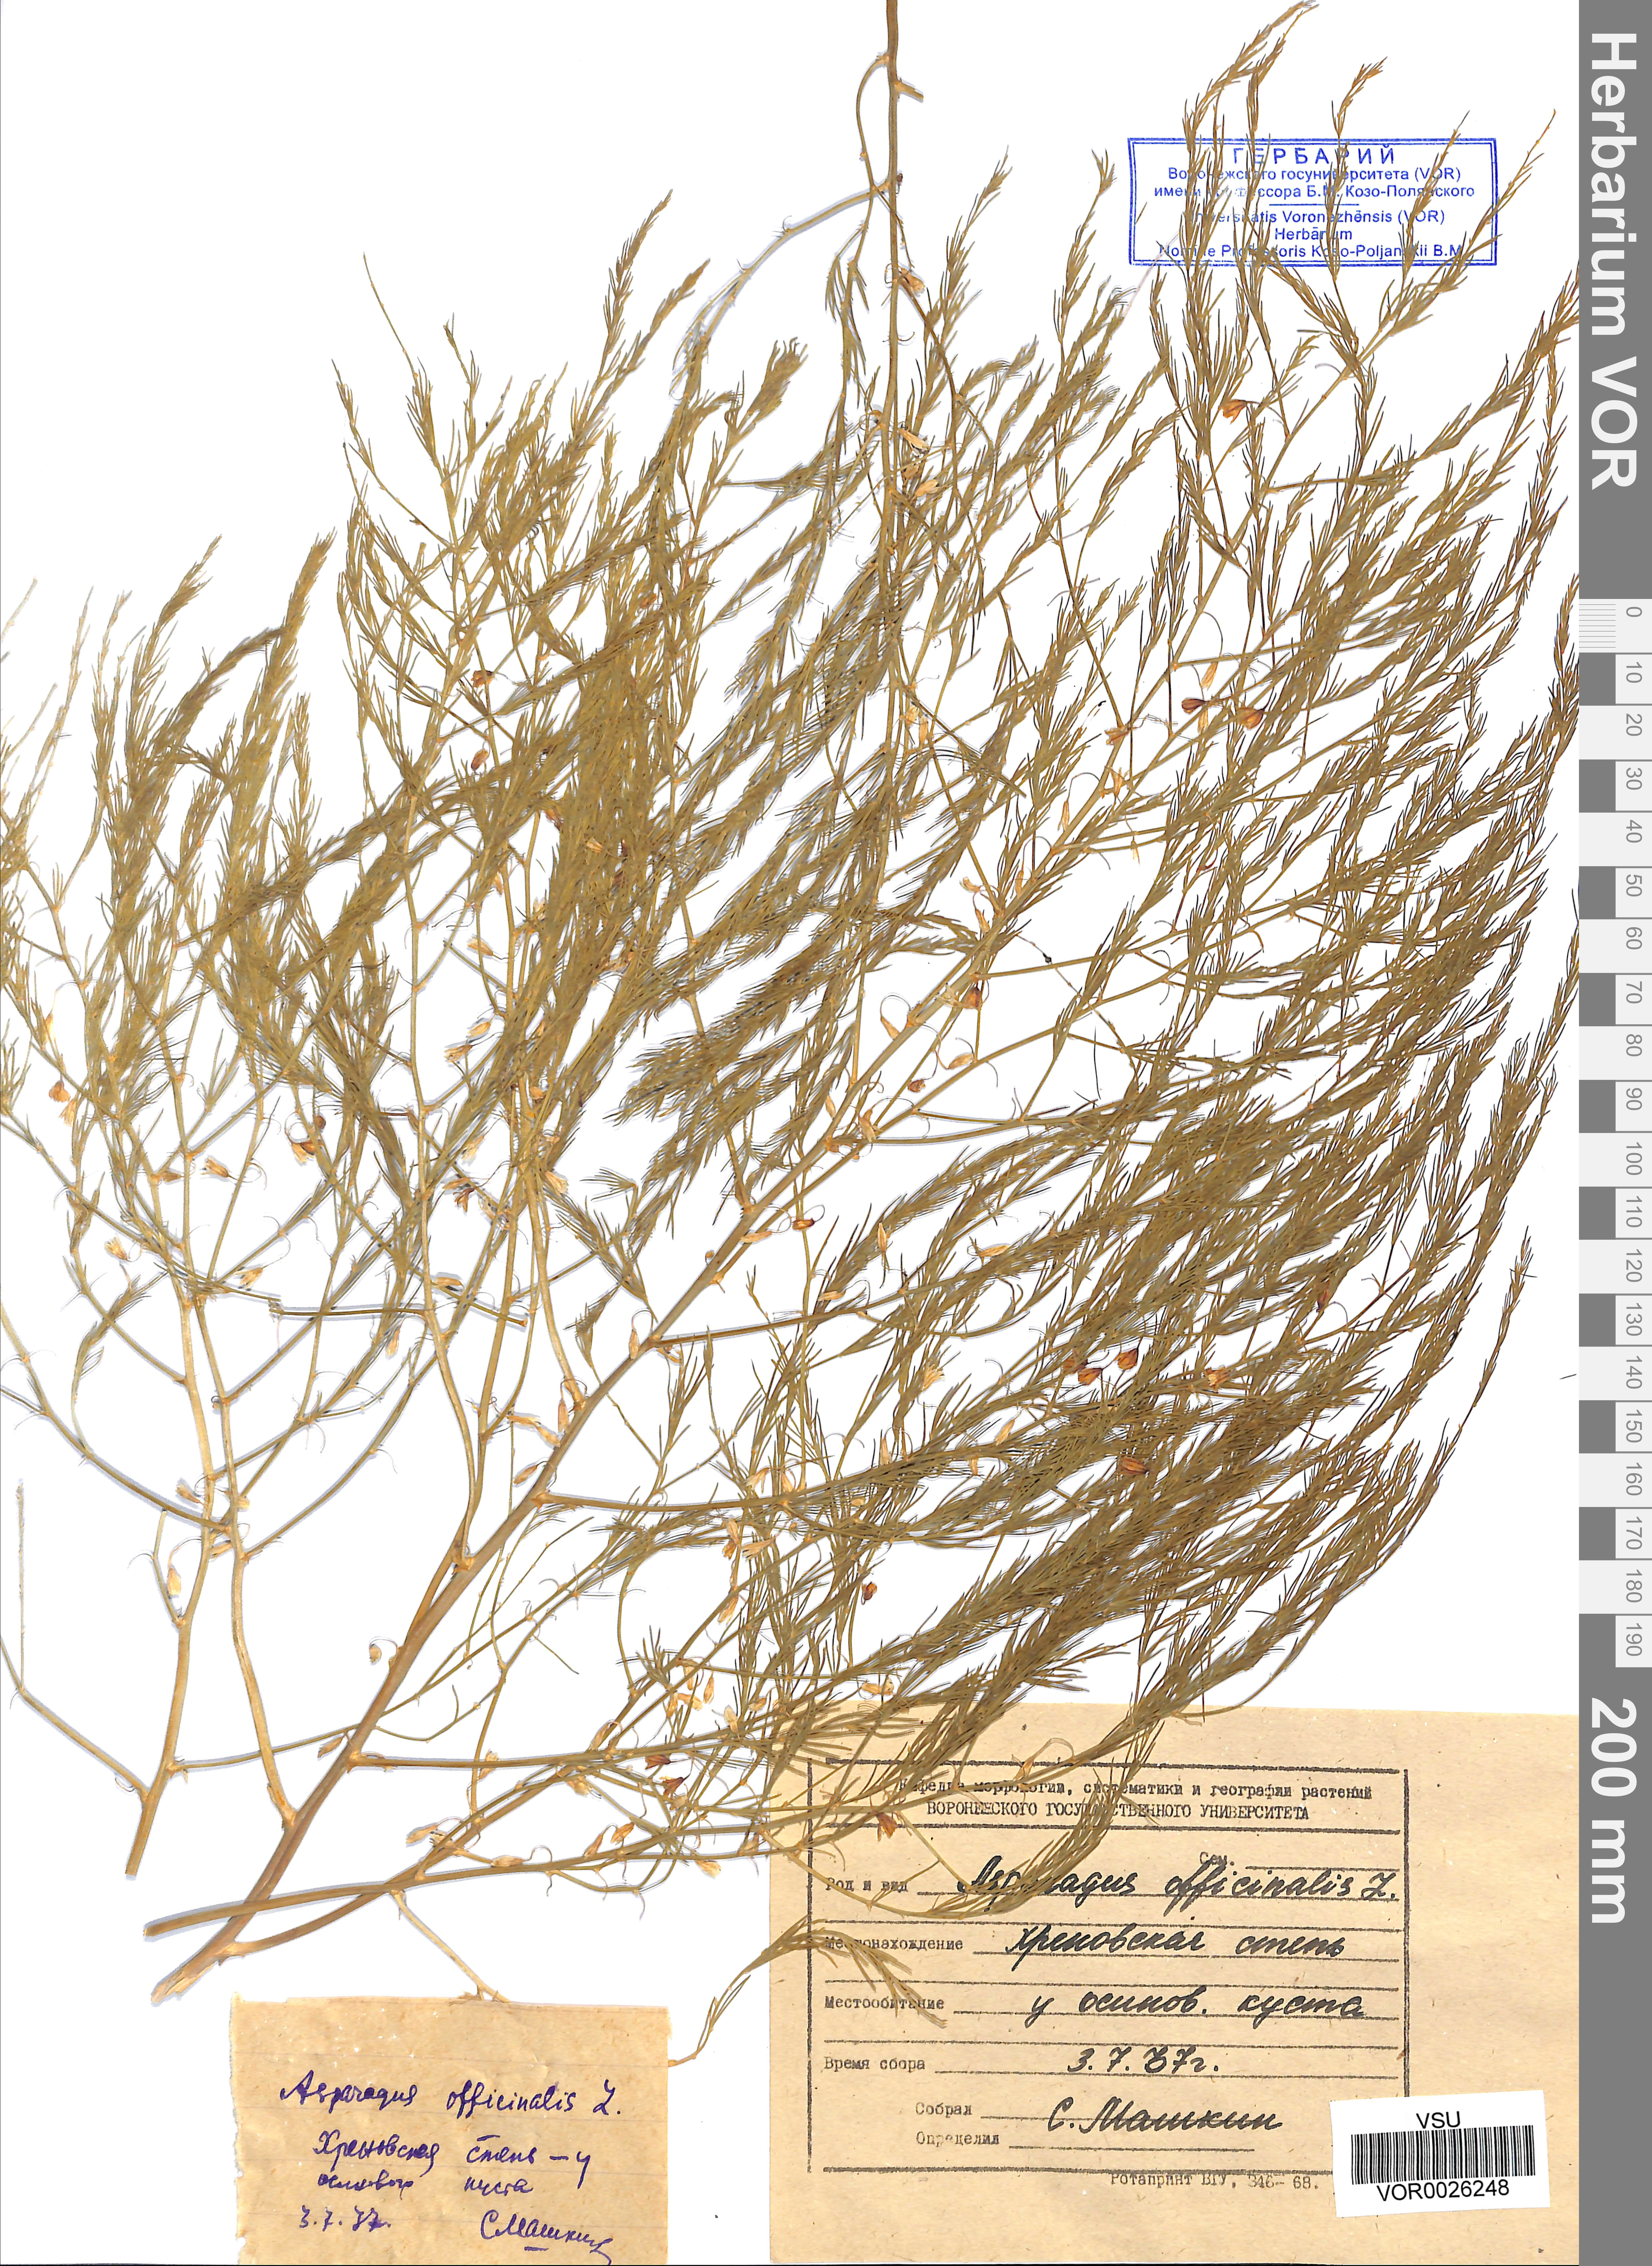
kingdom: Plantae
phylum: Tracheophyta
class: Liliopsida
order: Asparagales
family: Asparagaceae
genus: Asparagus
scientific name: Asparagus officinalis
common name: Garden asparagus
